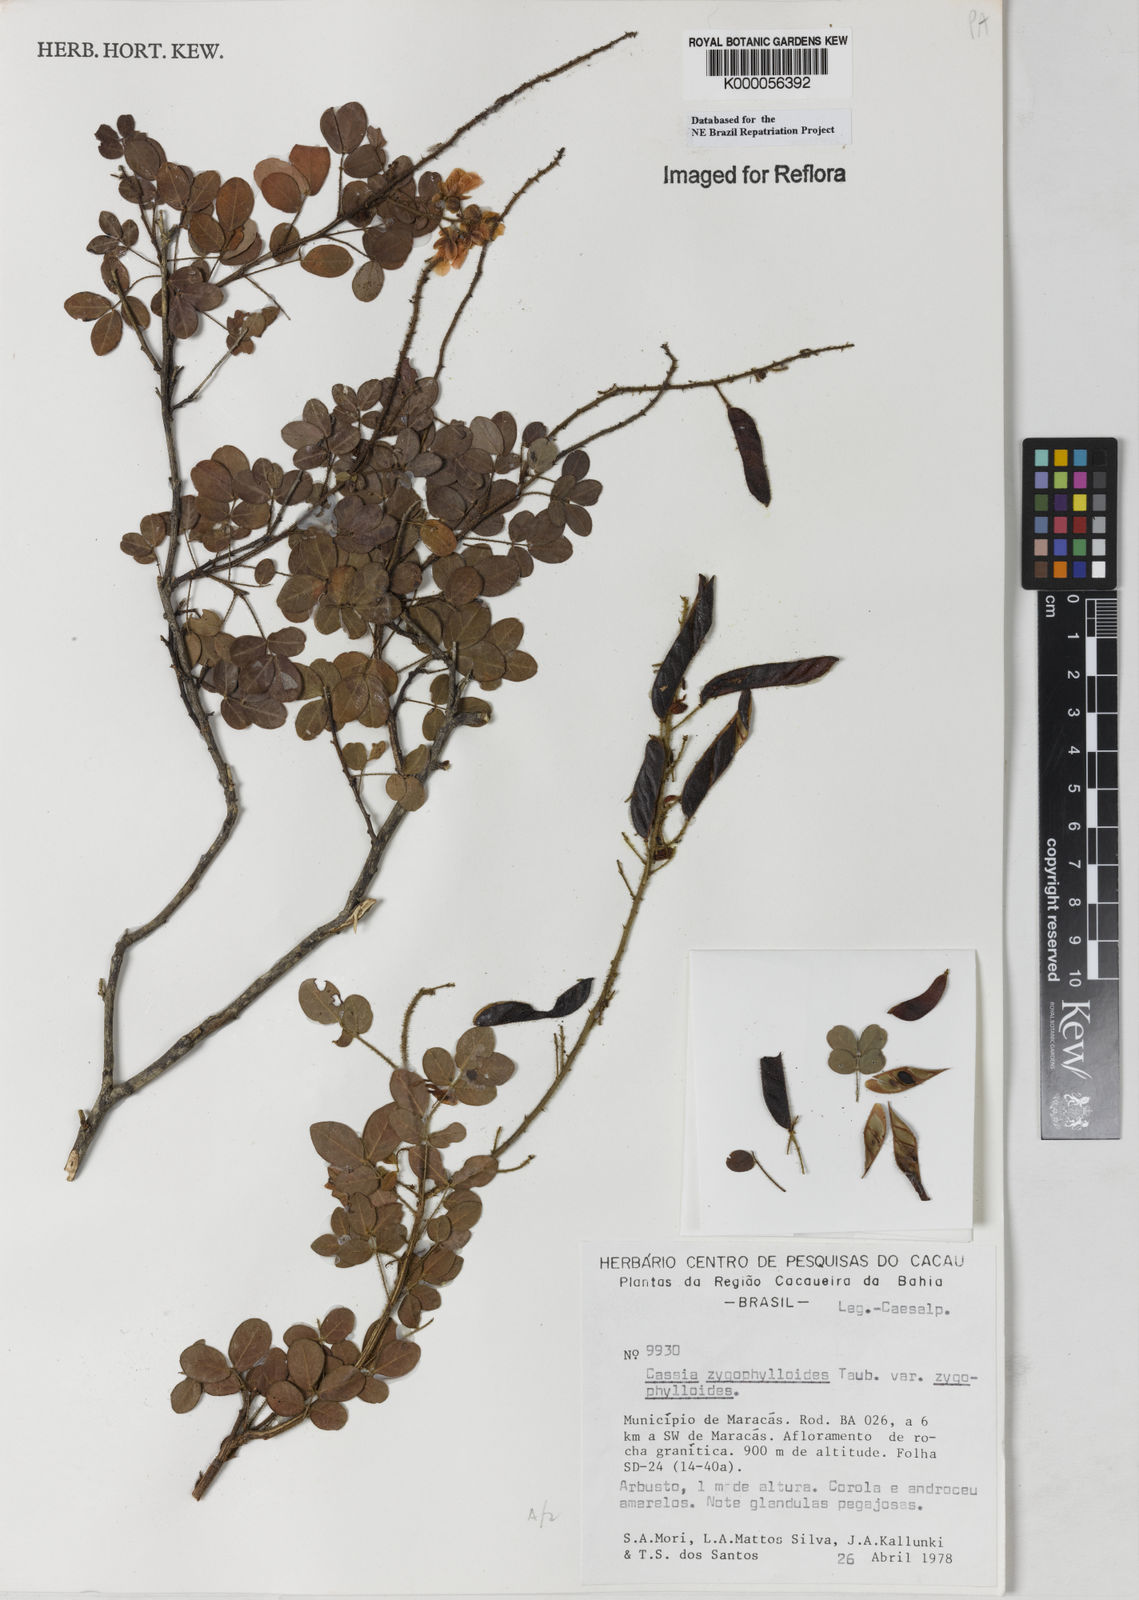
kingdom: Plantae
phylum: Tracheophyta
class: Magnoliopsida
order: Fabales
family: Fabaceae
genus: Chamaecrista
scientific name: Chamaecrista zygophylloides
